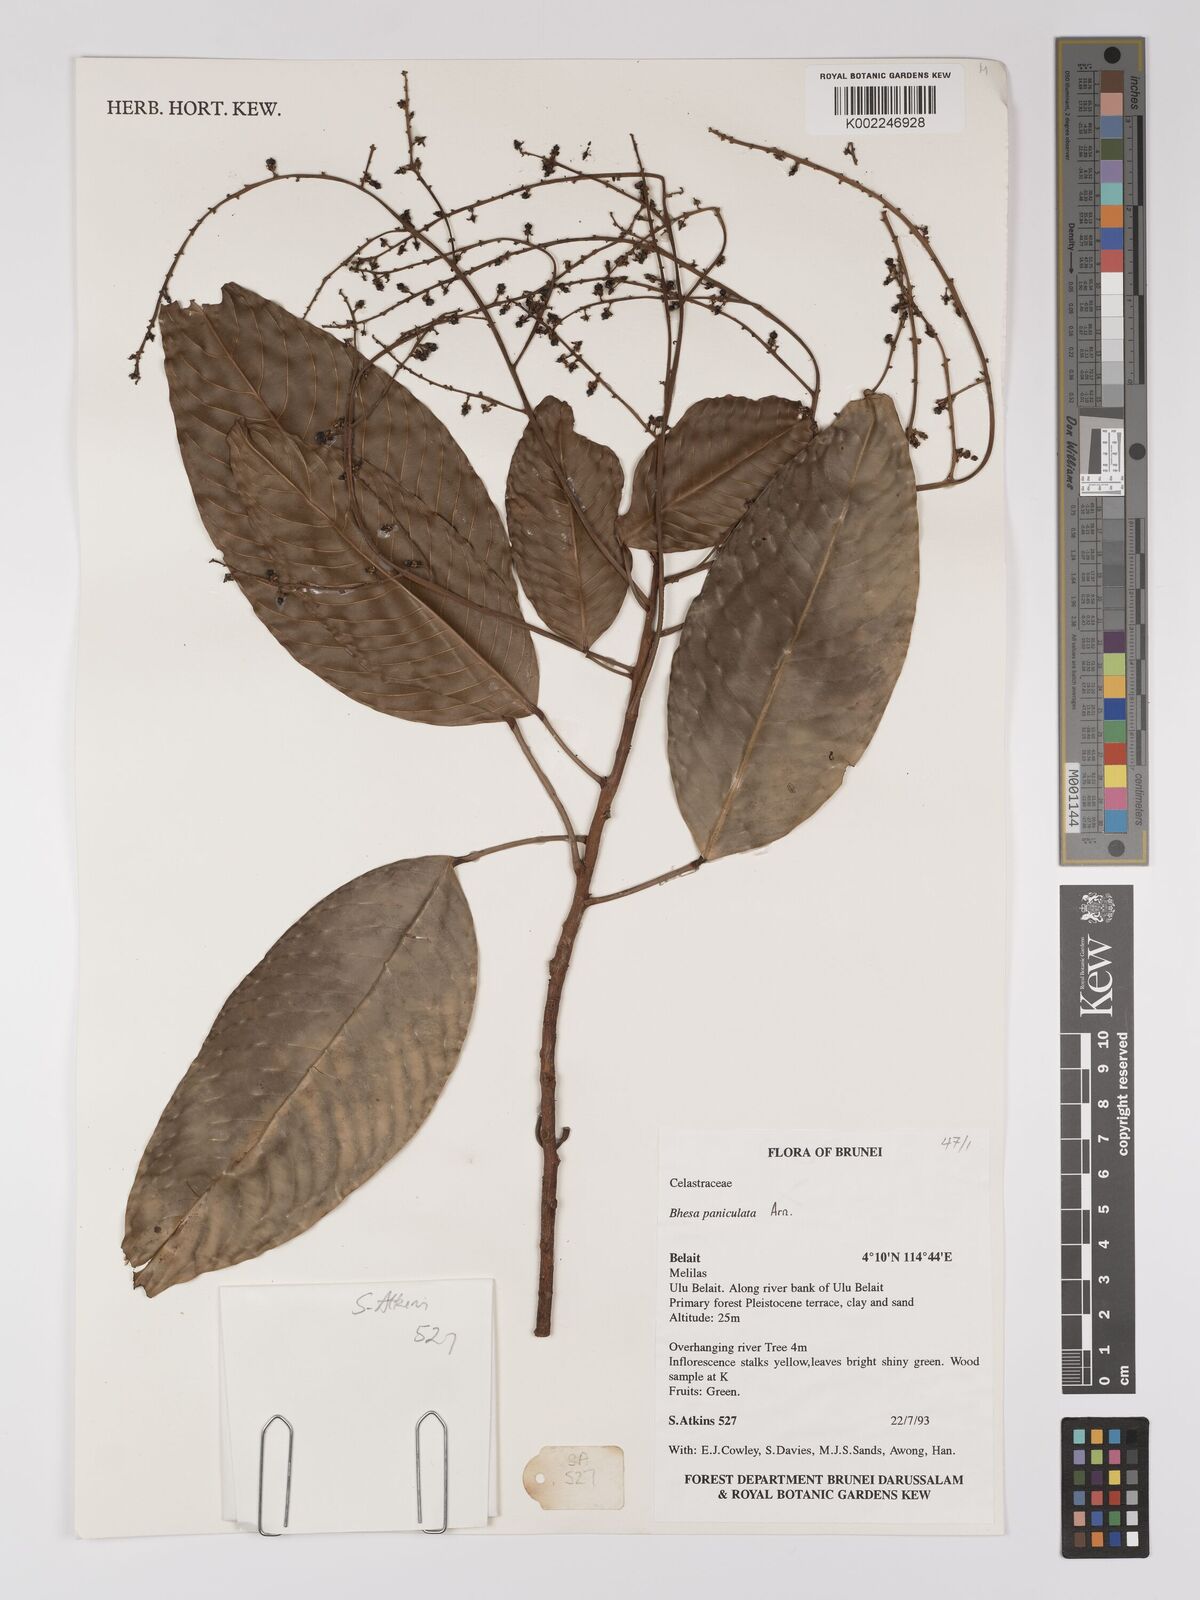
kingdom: Plantae
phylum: Tracheophyta
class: Magnoliopsida
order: Malpighiales
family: Centroplacaceae
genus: Bhesa
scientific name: Bhesa paniculata
